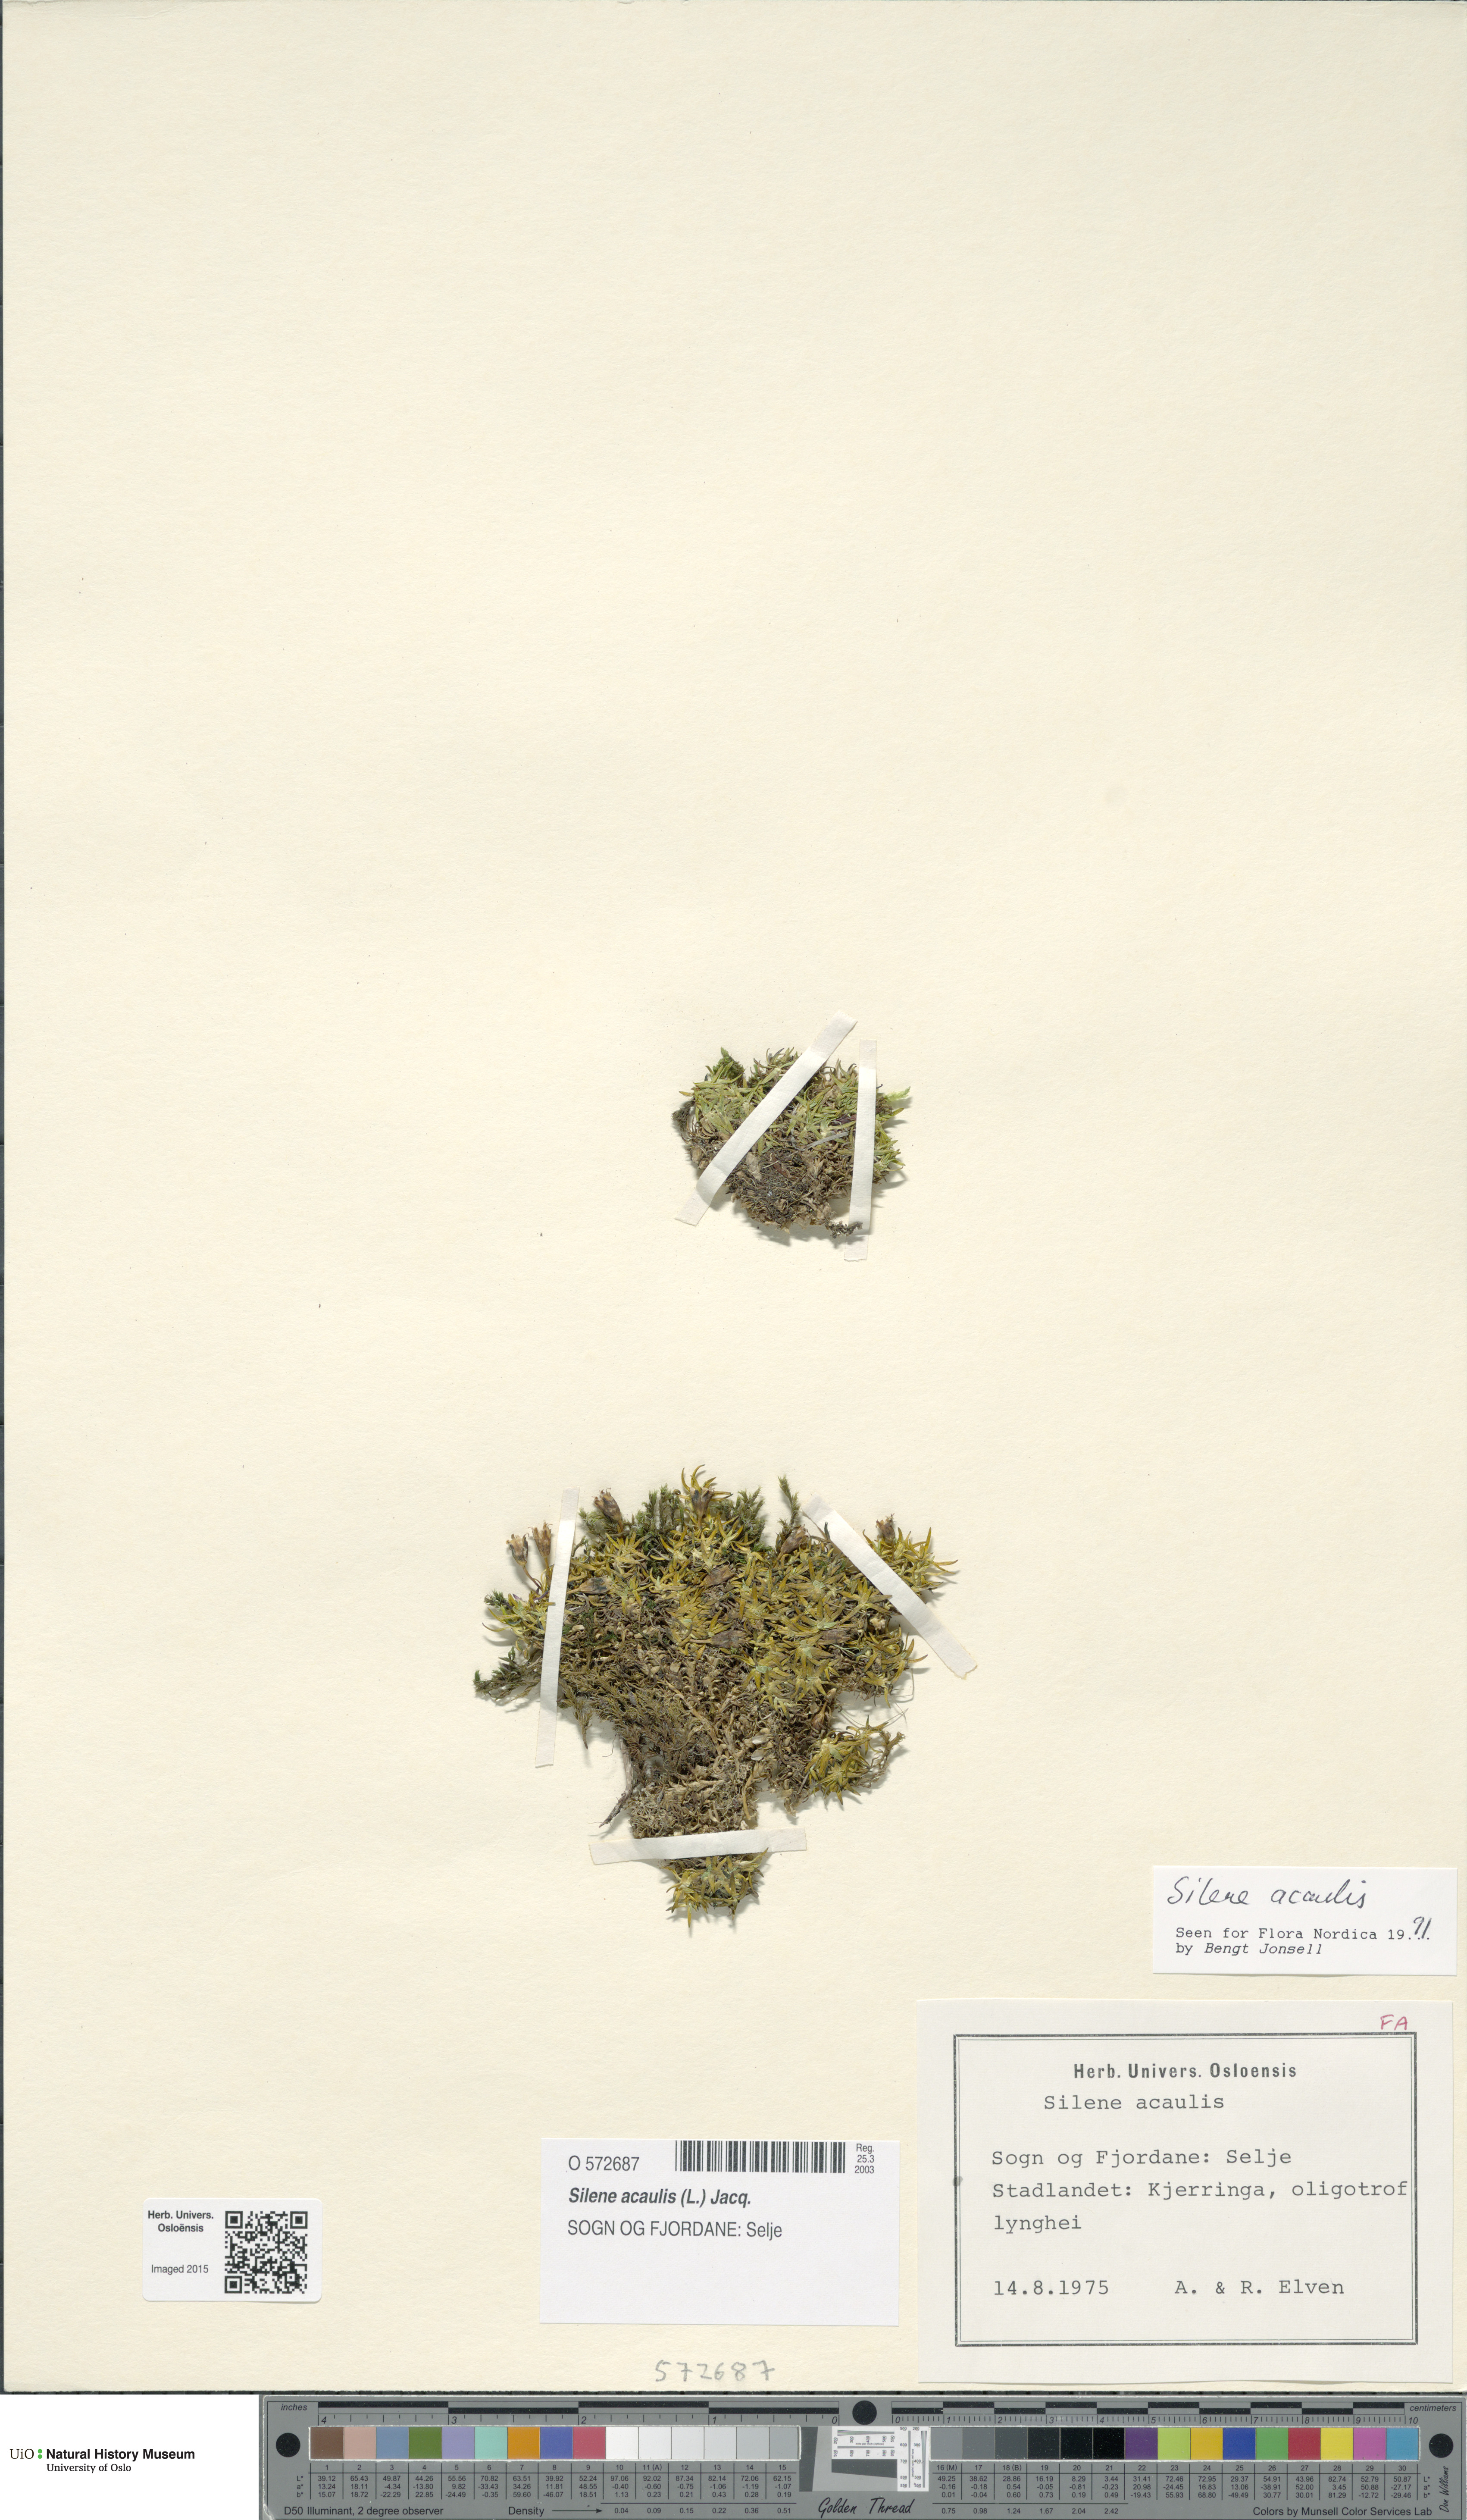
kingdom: Plantae
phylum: Tracheophyta
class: Magnoliopsida
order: Caryophyllales
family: Caryophyllaceae
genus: Silene
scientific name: Silene acaulis
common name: Moss campion
